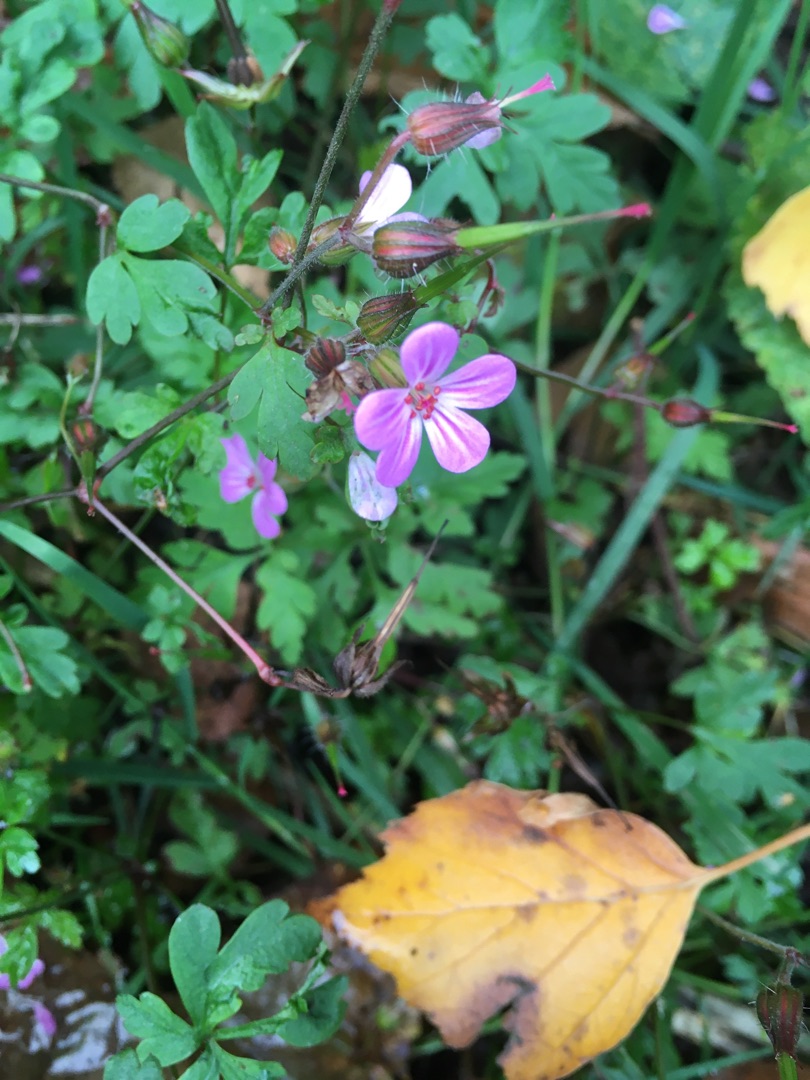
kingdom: Plantae
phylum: Tracheophyta
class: Magnoliopsida
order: Geraniales
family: Geraniaceae
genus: Geranium
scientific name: Geranium robertianum
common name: Stinkende storkenæb
